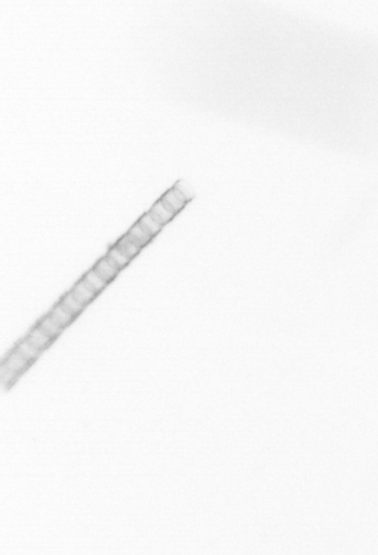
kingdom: Chromista
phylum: Ochrophyta
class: Bacillariophyceae
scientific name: Bacillariophyceae
